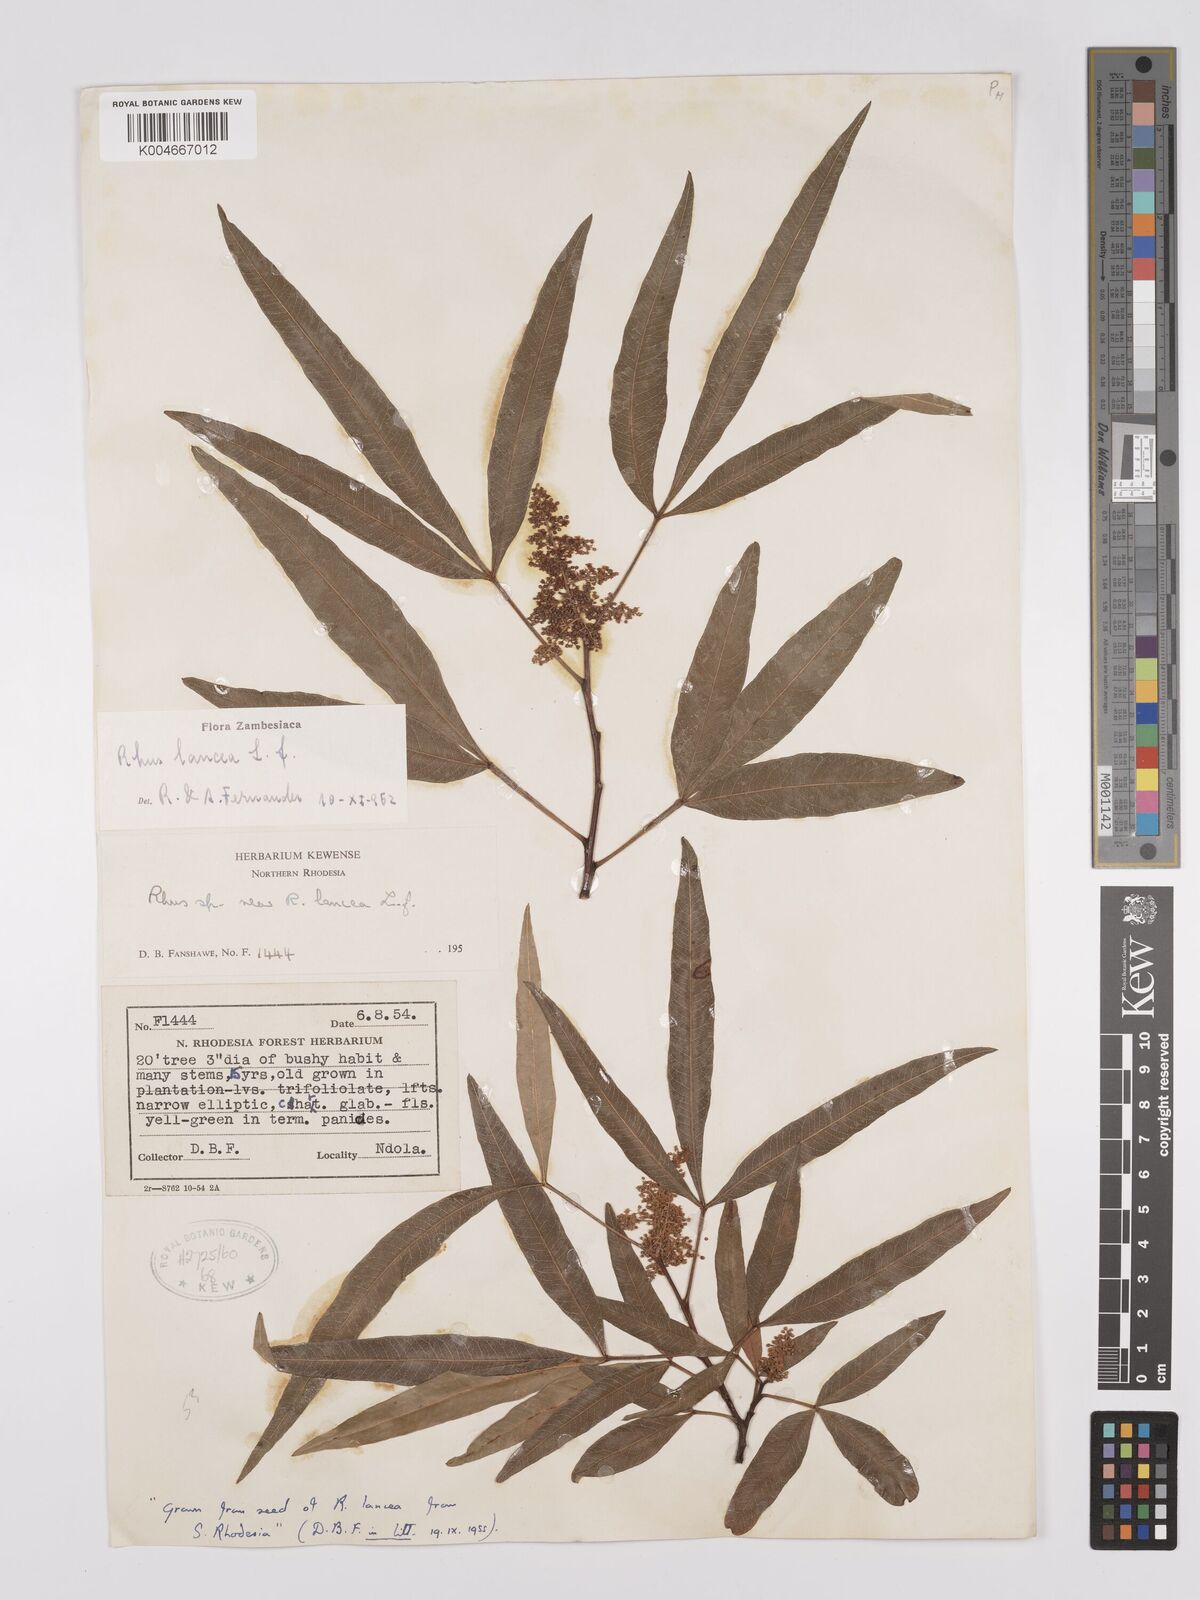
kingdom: Plantae
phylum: Tracheophyta
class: Magnoliopsida
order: Sapindales
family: Anacardiaceae
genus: Searsia
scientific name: Searsia lancea
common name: Cashew
